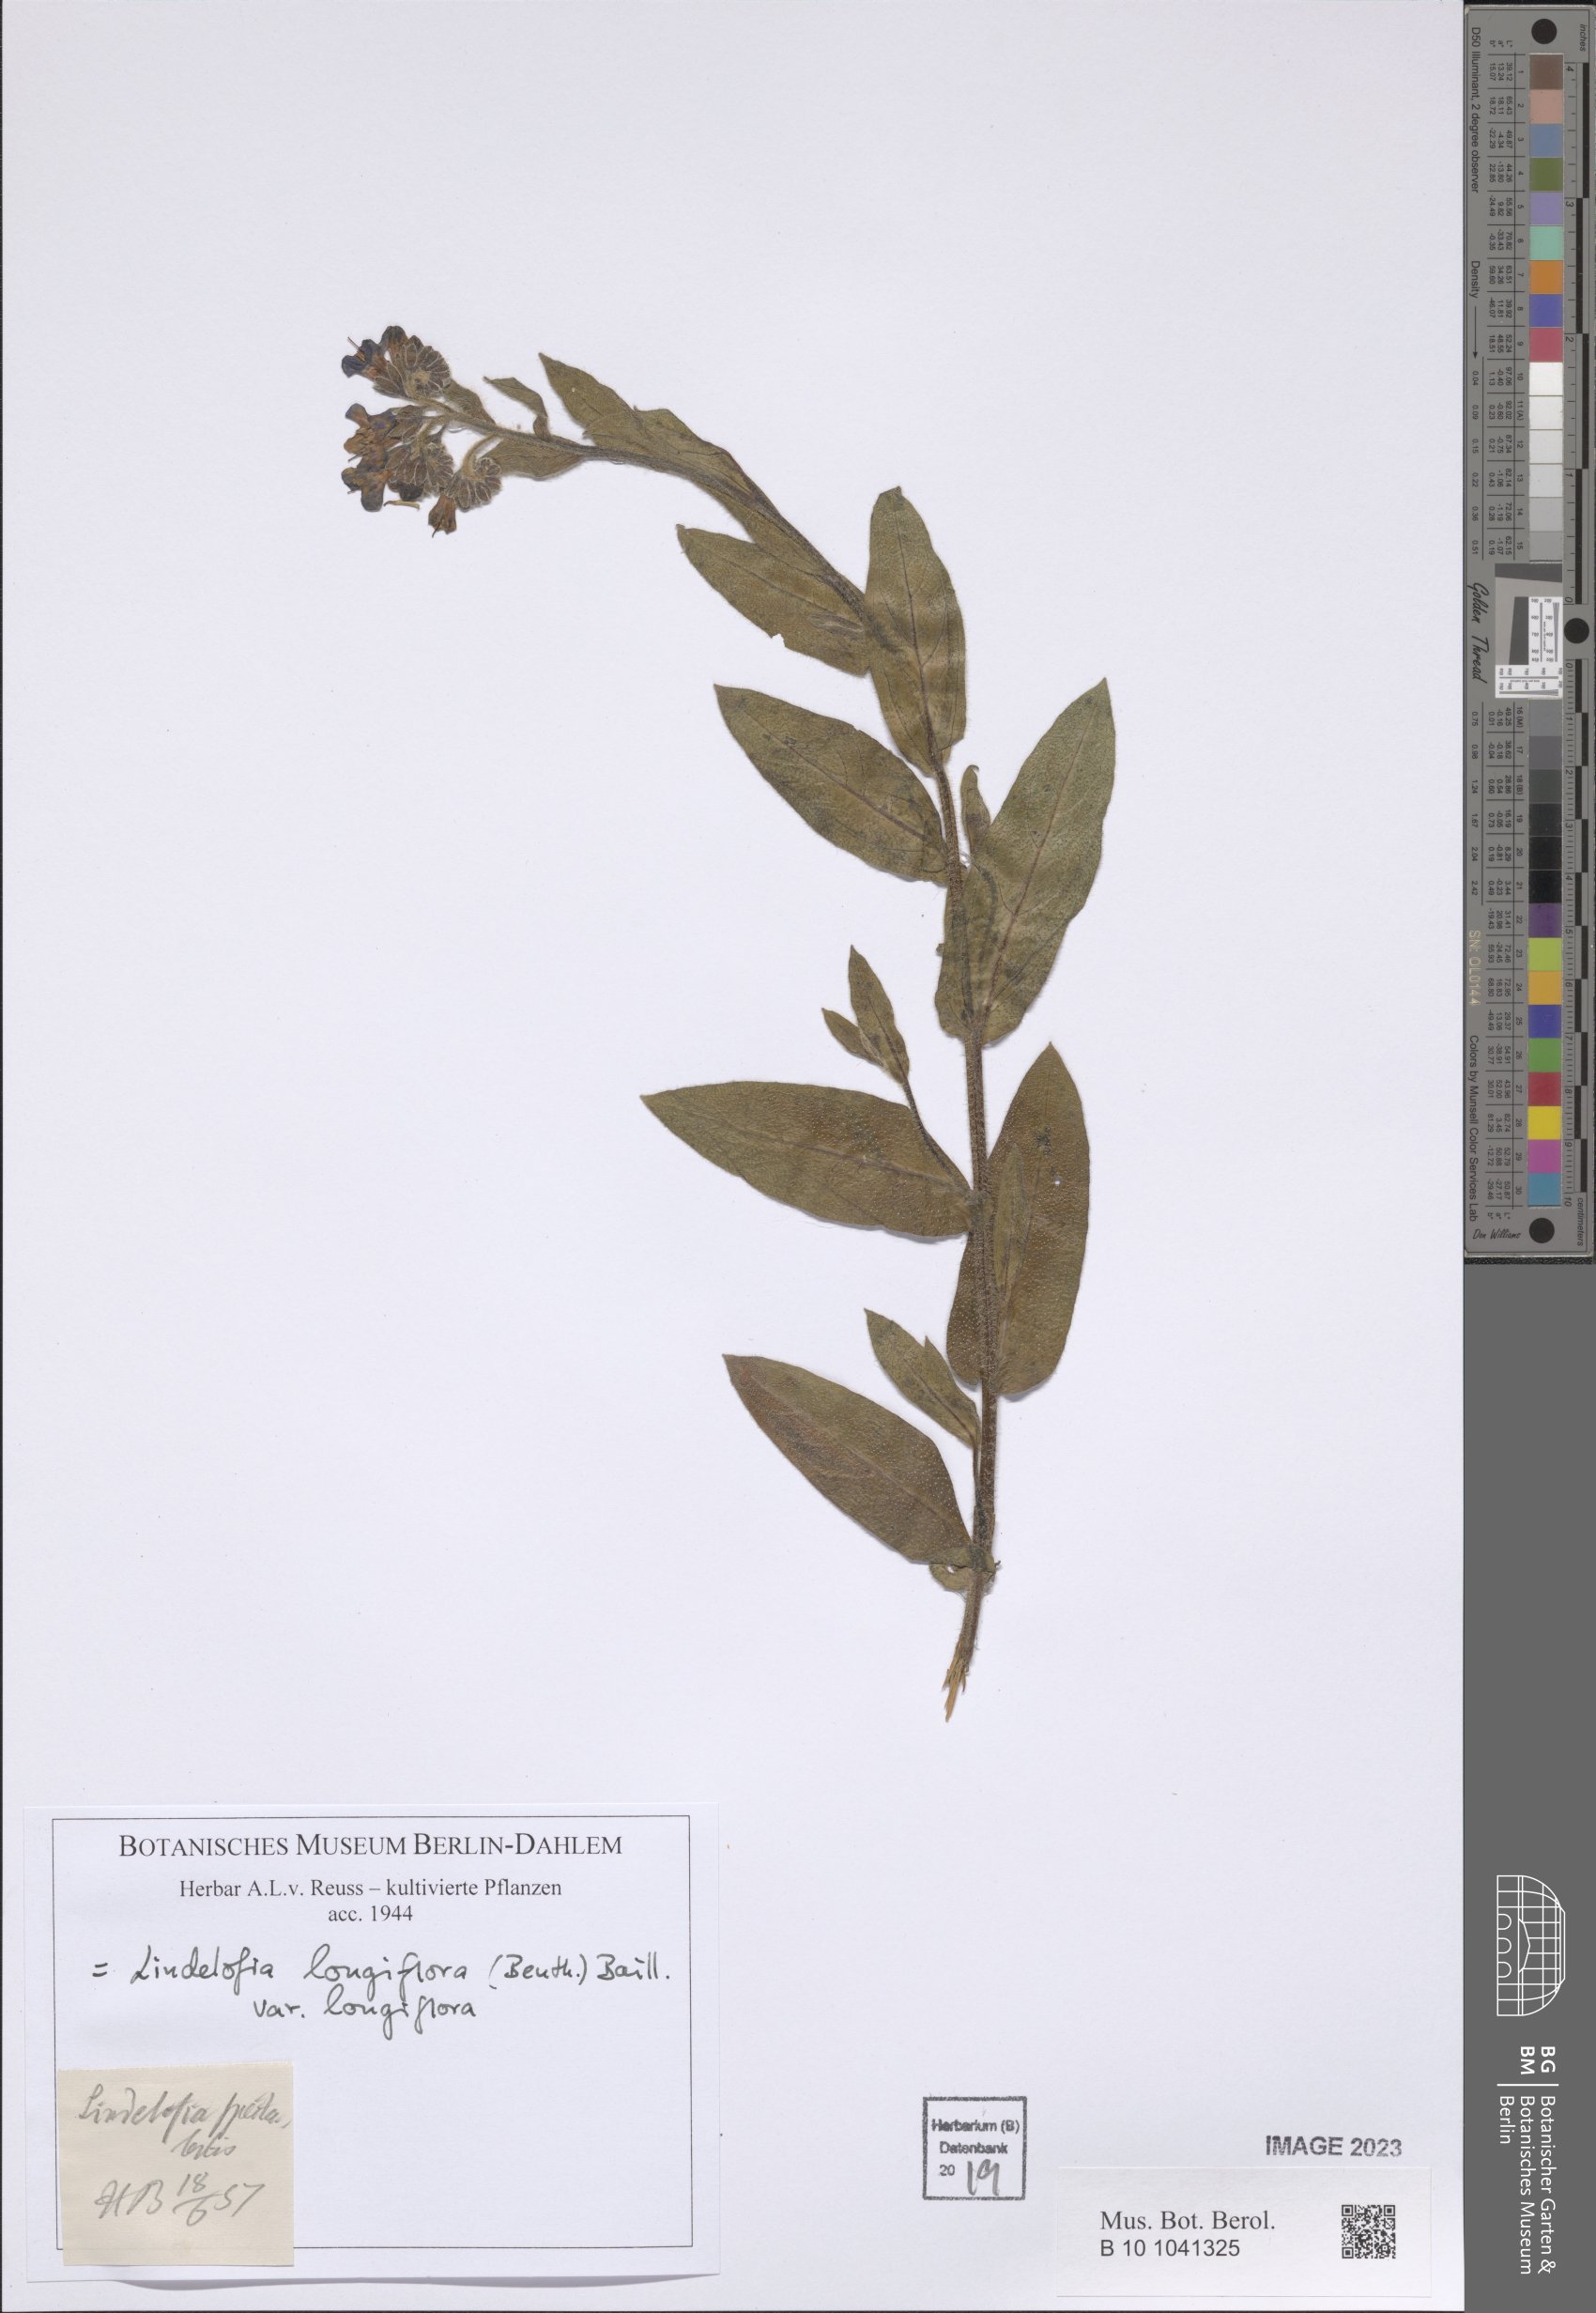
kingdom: Plantae
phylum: Tracheophyta
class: Magnoliopsida
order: Boraginales
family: Boraginaceae
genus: Lindelofia
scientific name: Lindelofia longiflora
